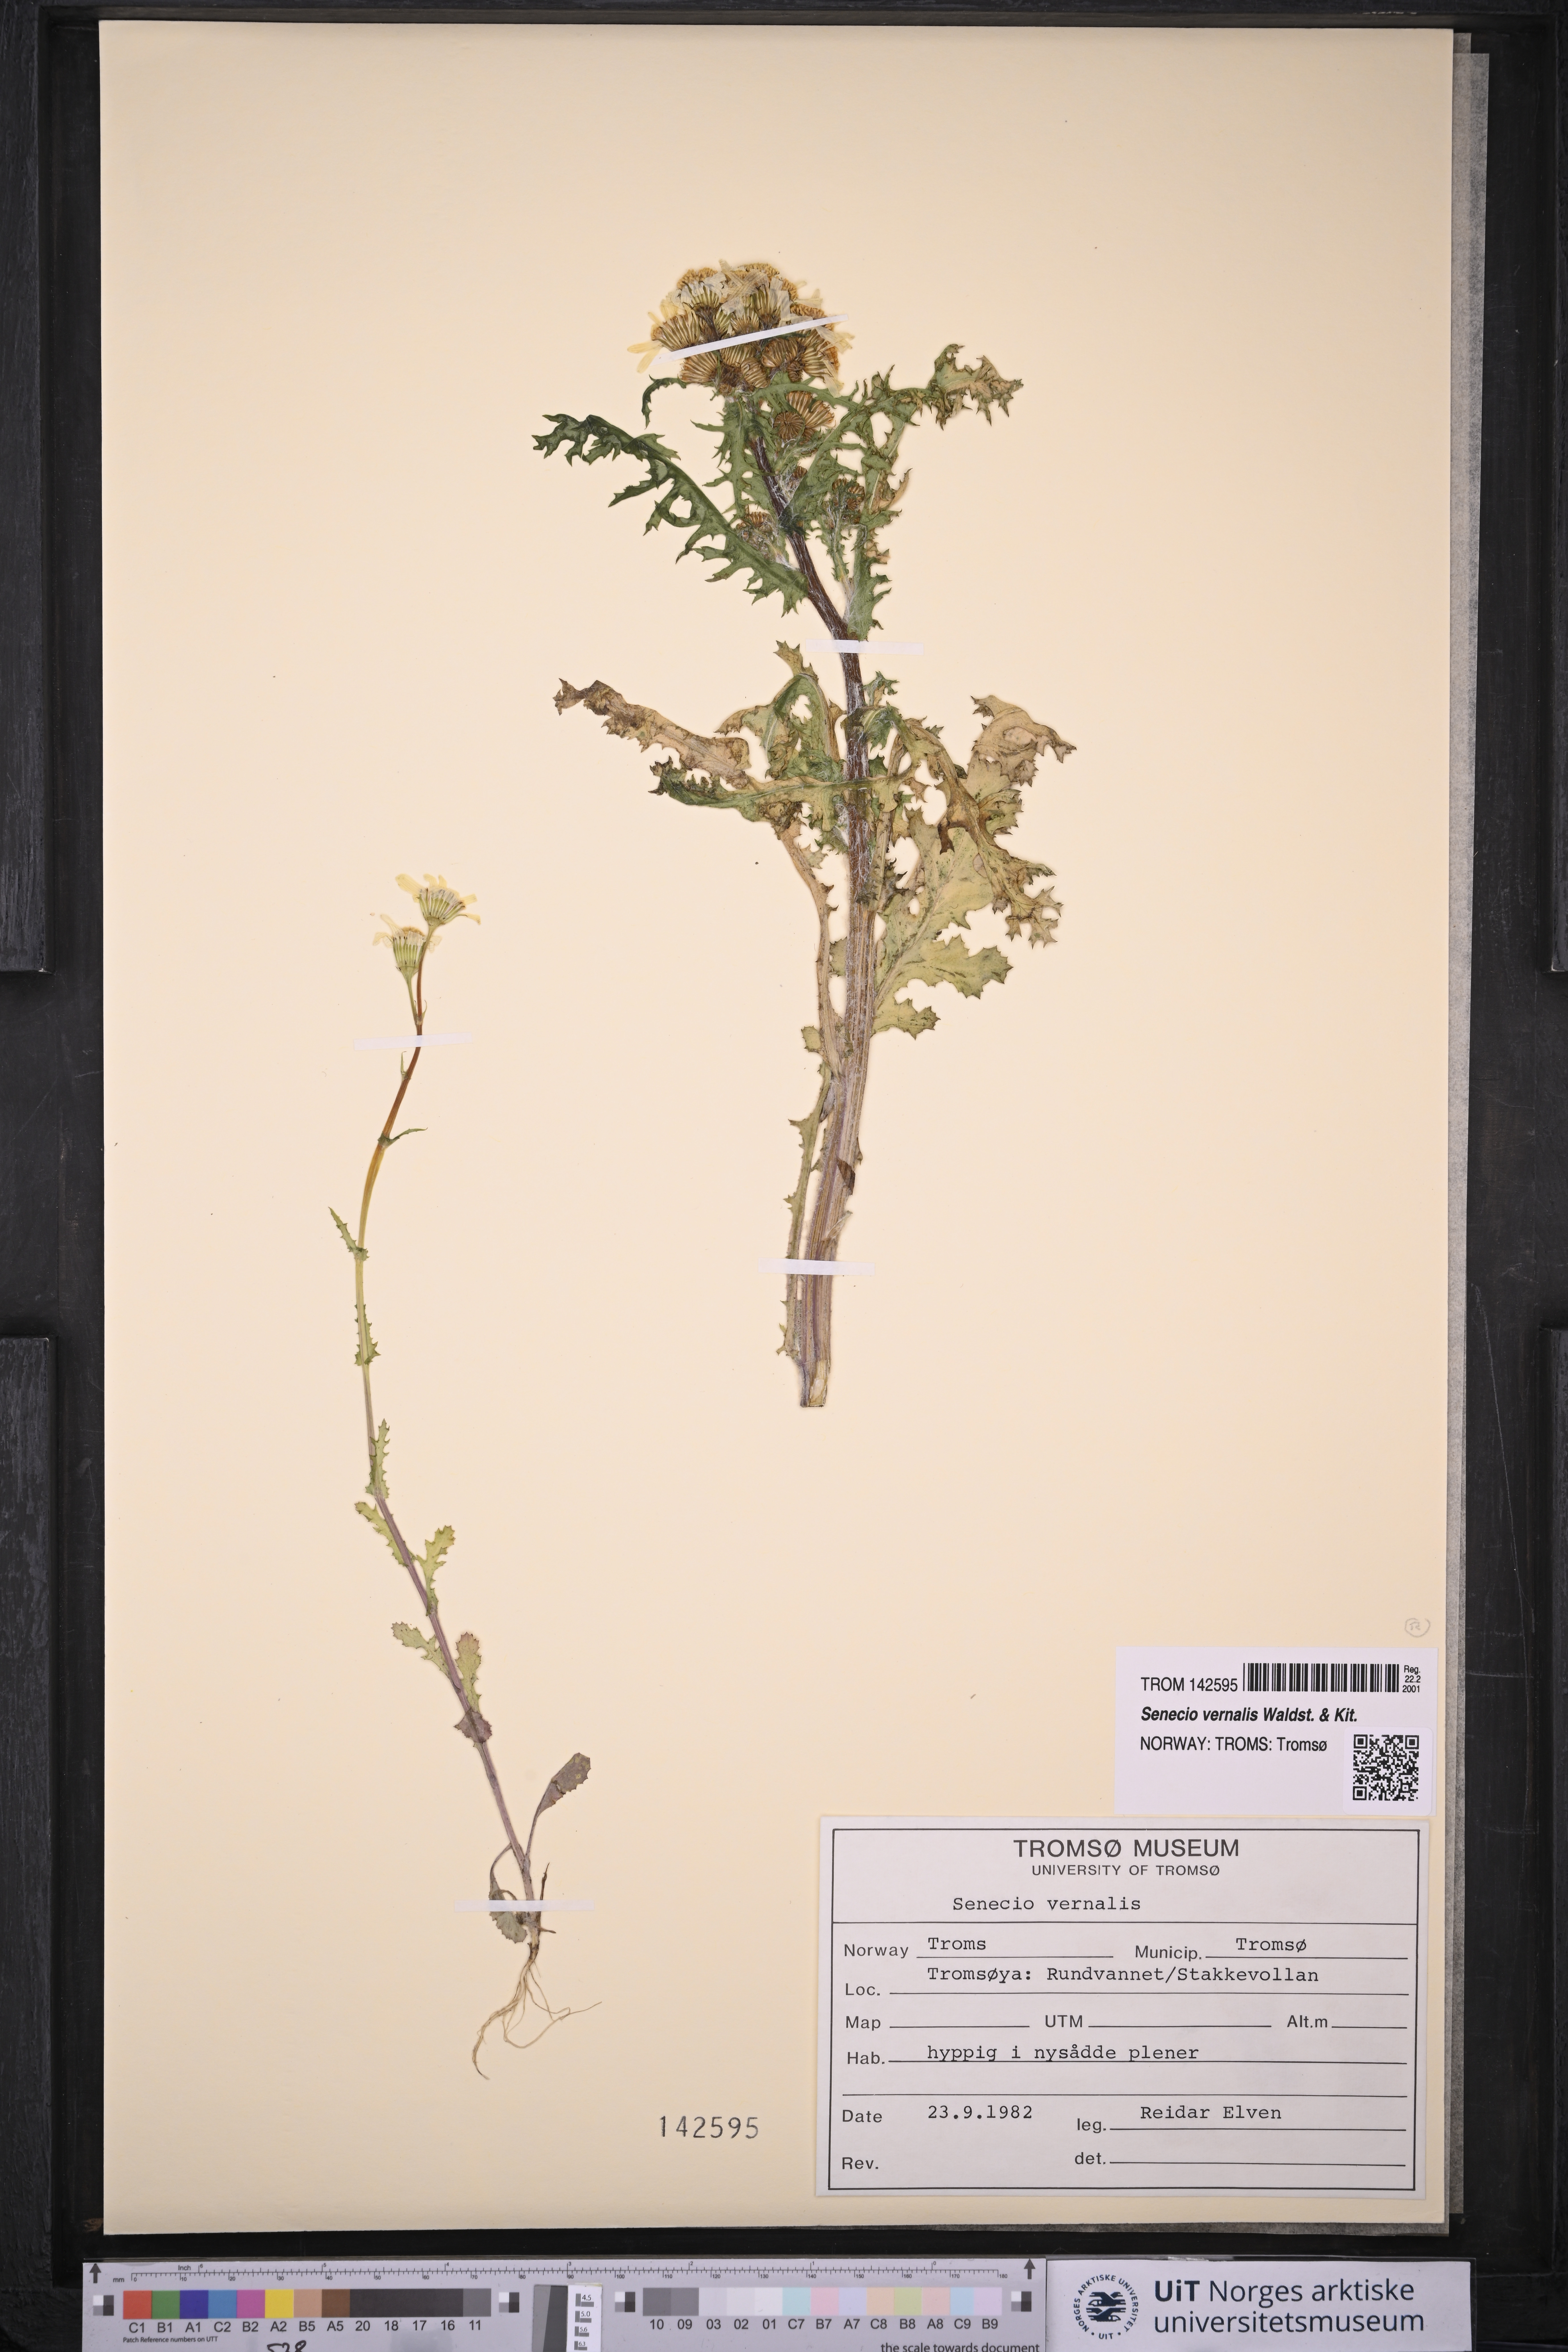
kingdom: Plantae
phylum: Tracheophyta
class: Magnoliopsida
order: Asterales
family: Asteraceae
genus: Senecio
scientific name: Senecio vernalis
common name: Eastern groundsel
